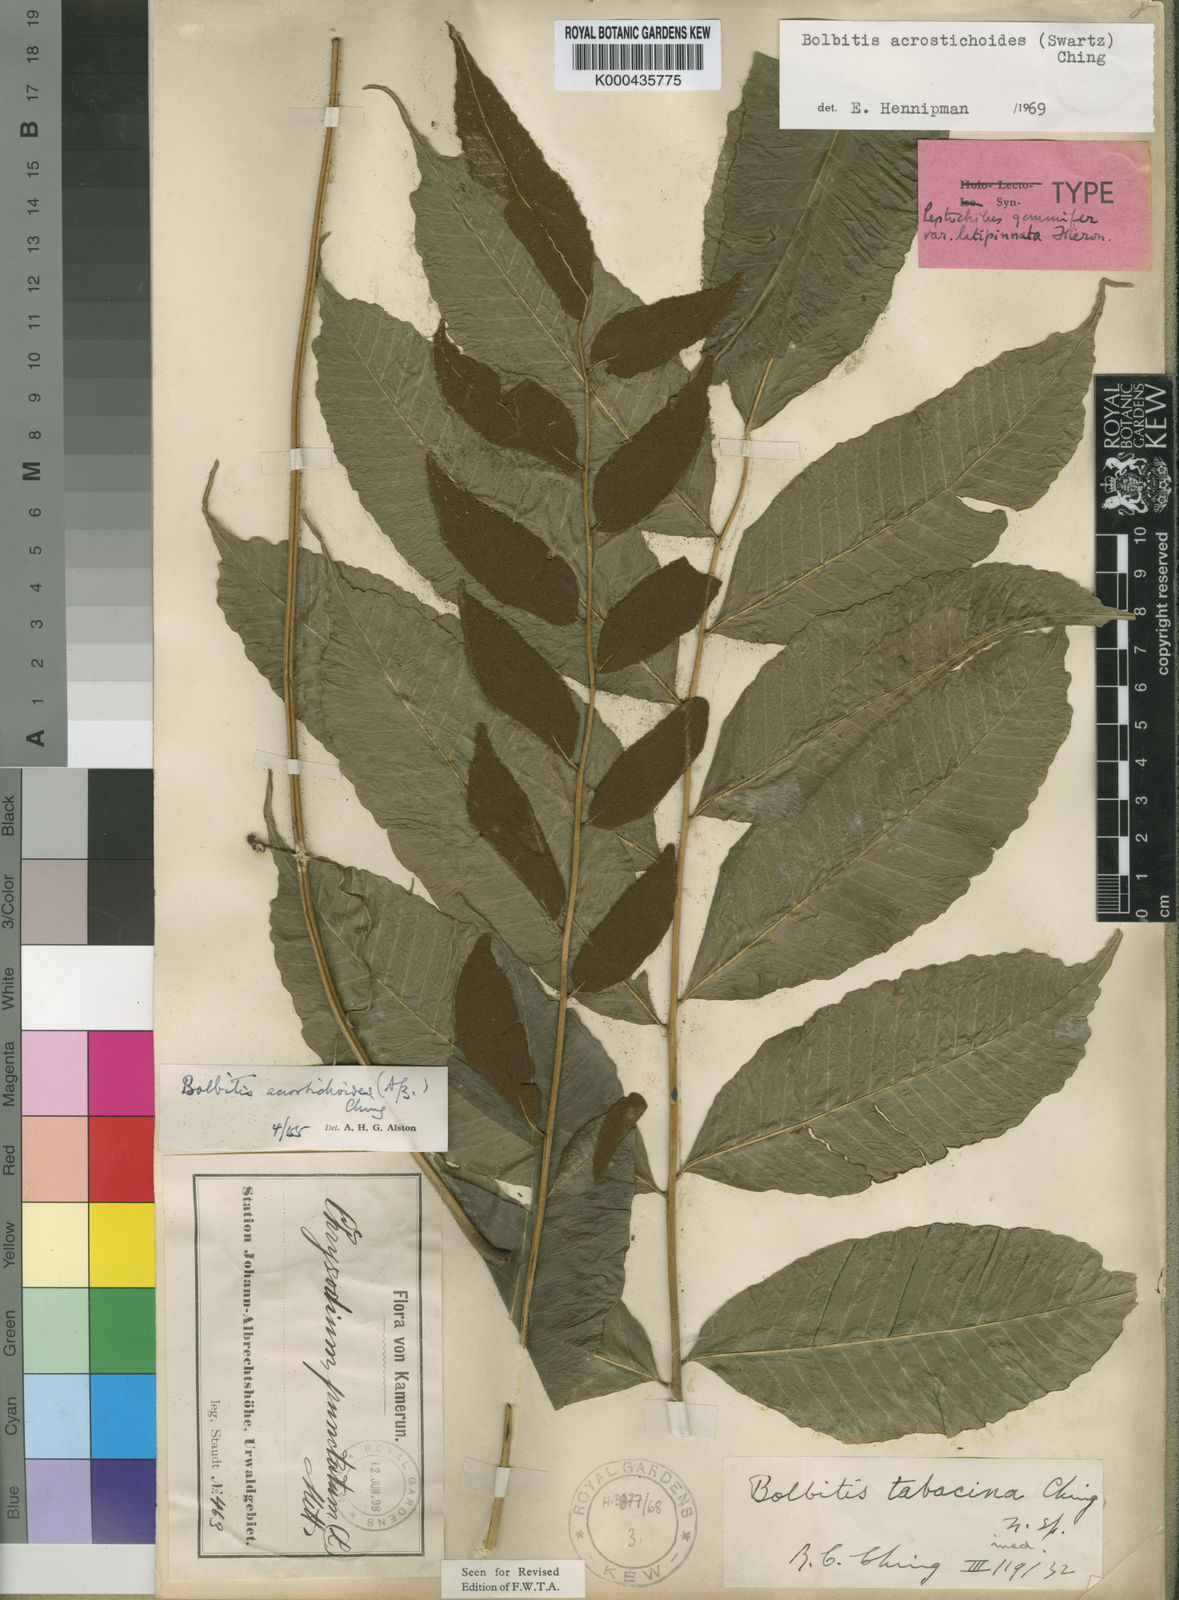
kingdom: Plantae
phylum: Tracheophyta
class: Polypodiopsida
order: Polypodiales
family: Dryopteridaceae
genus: Bolbitis
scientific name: Bolbitis acrostichoides
